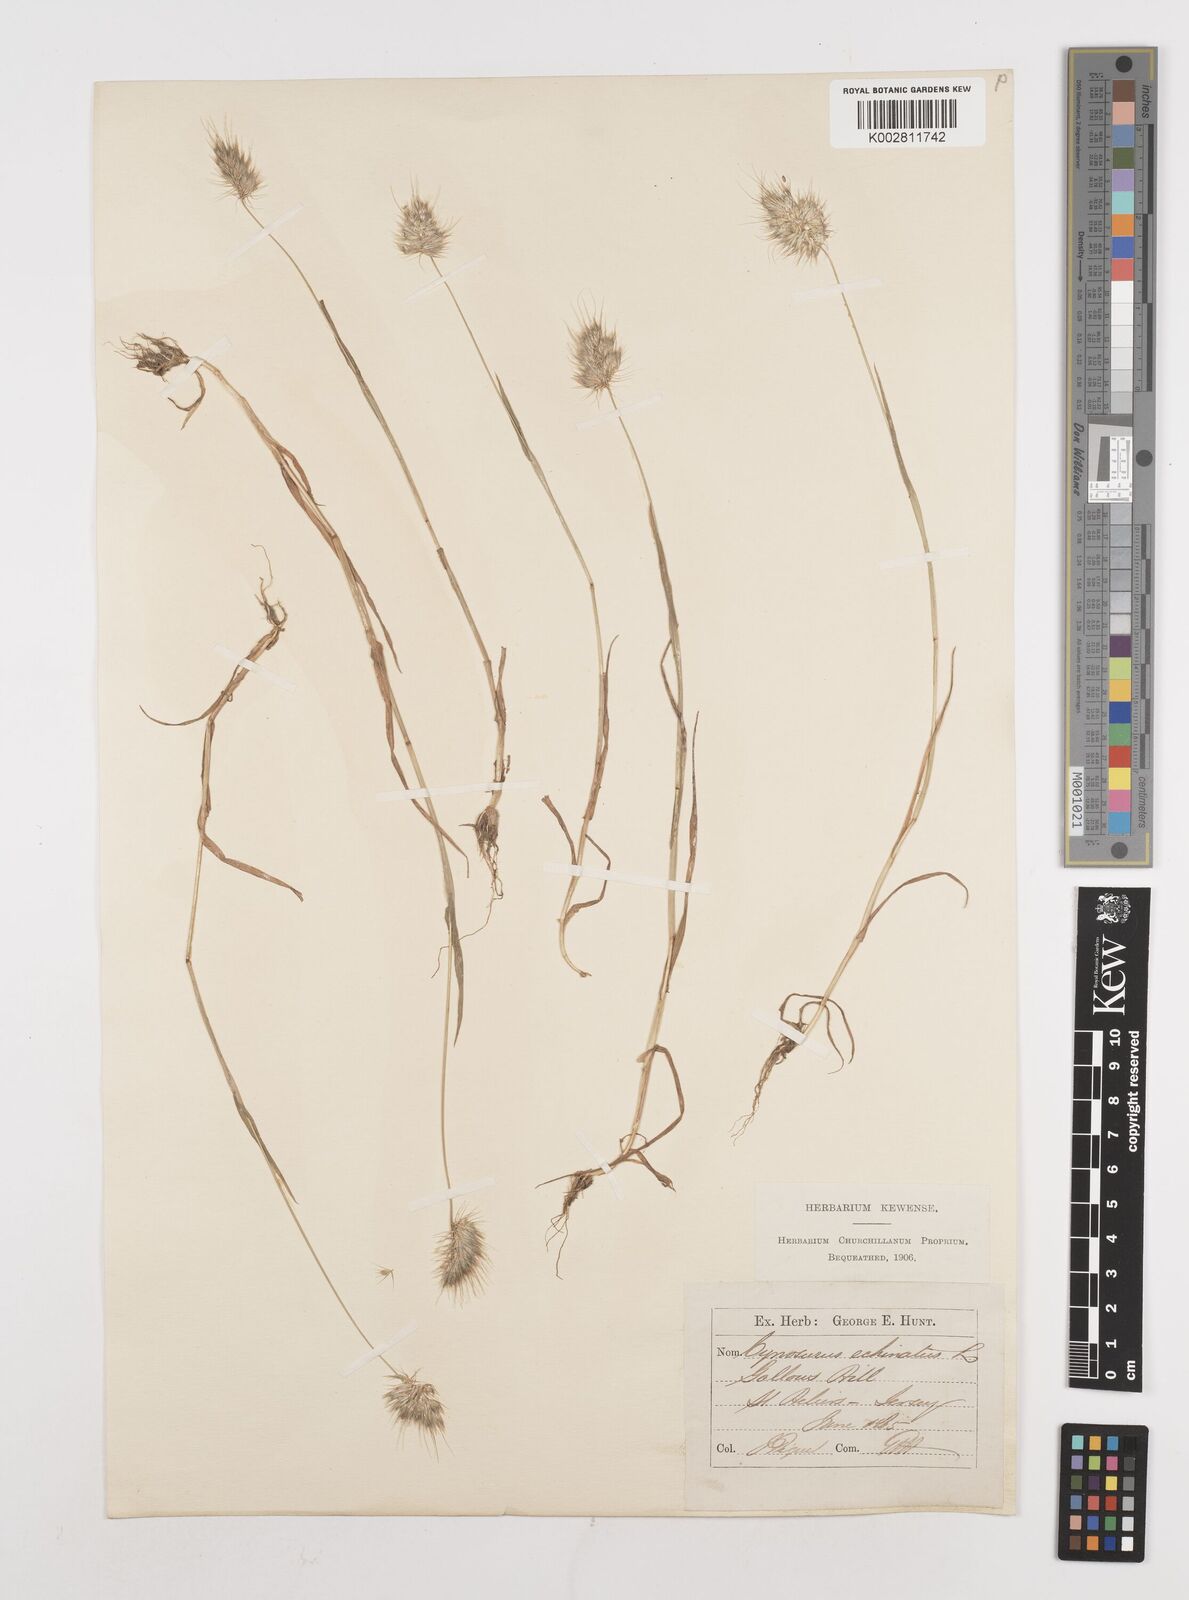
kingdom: Plantae
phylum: Tracheophyta
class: Liliopsida
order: Poales
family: Poaceae
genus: Cynosurus
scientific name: Cynosurus echinatus
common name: Rough dog's-tail
